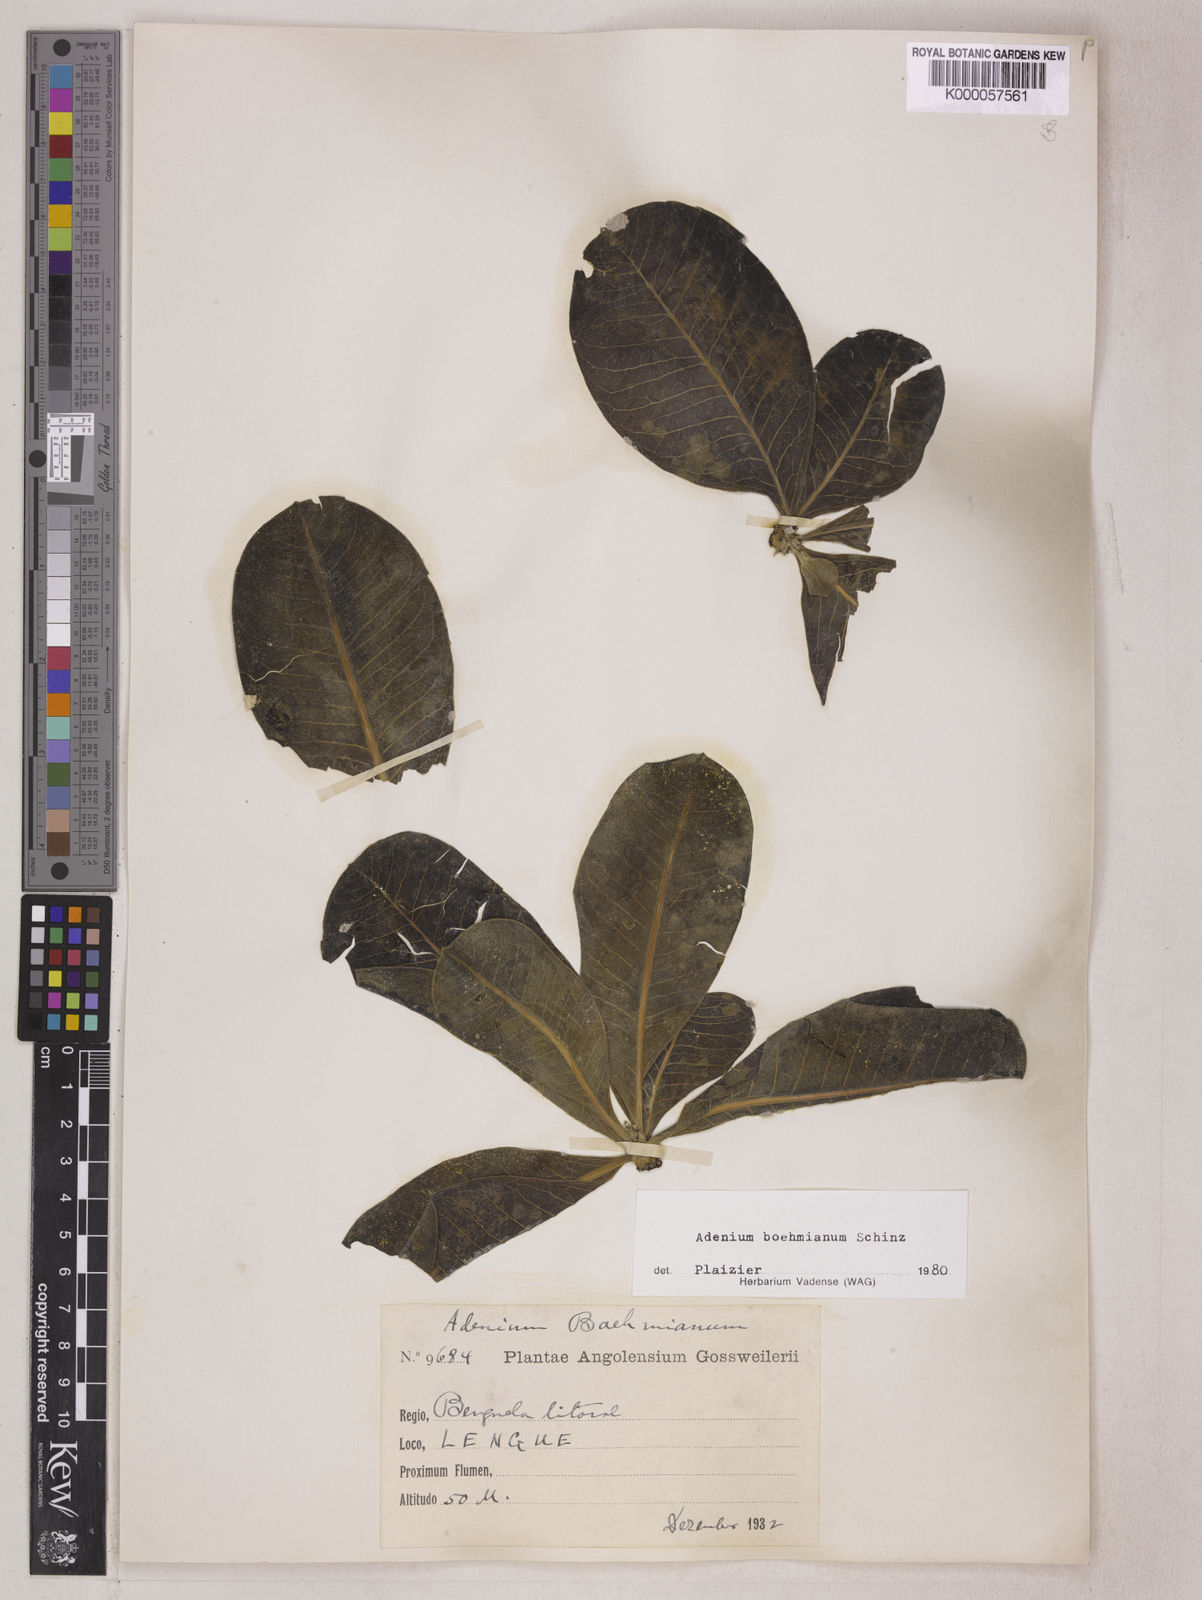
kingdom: Plantae
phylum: Tracheophyta
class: Magnoliopsida
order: Gentianales
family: Apocynaceae
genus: Adenium
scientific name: Adenium obesum
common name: Desert-rose
